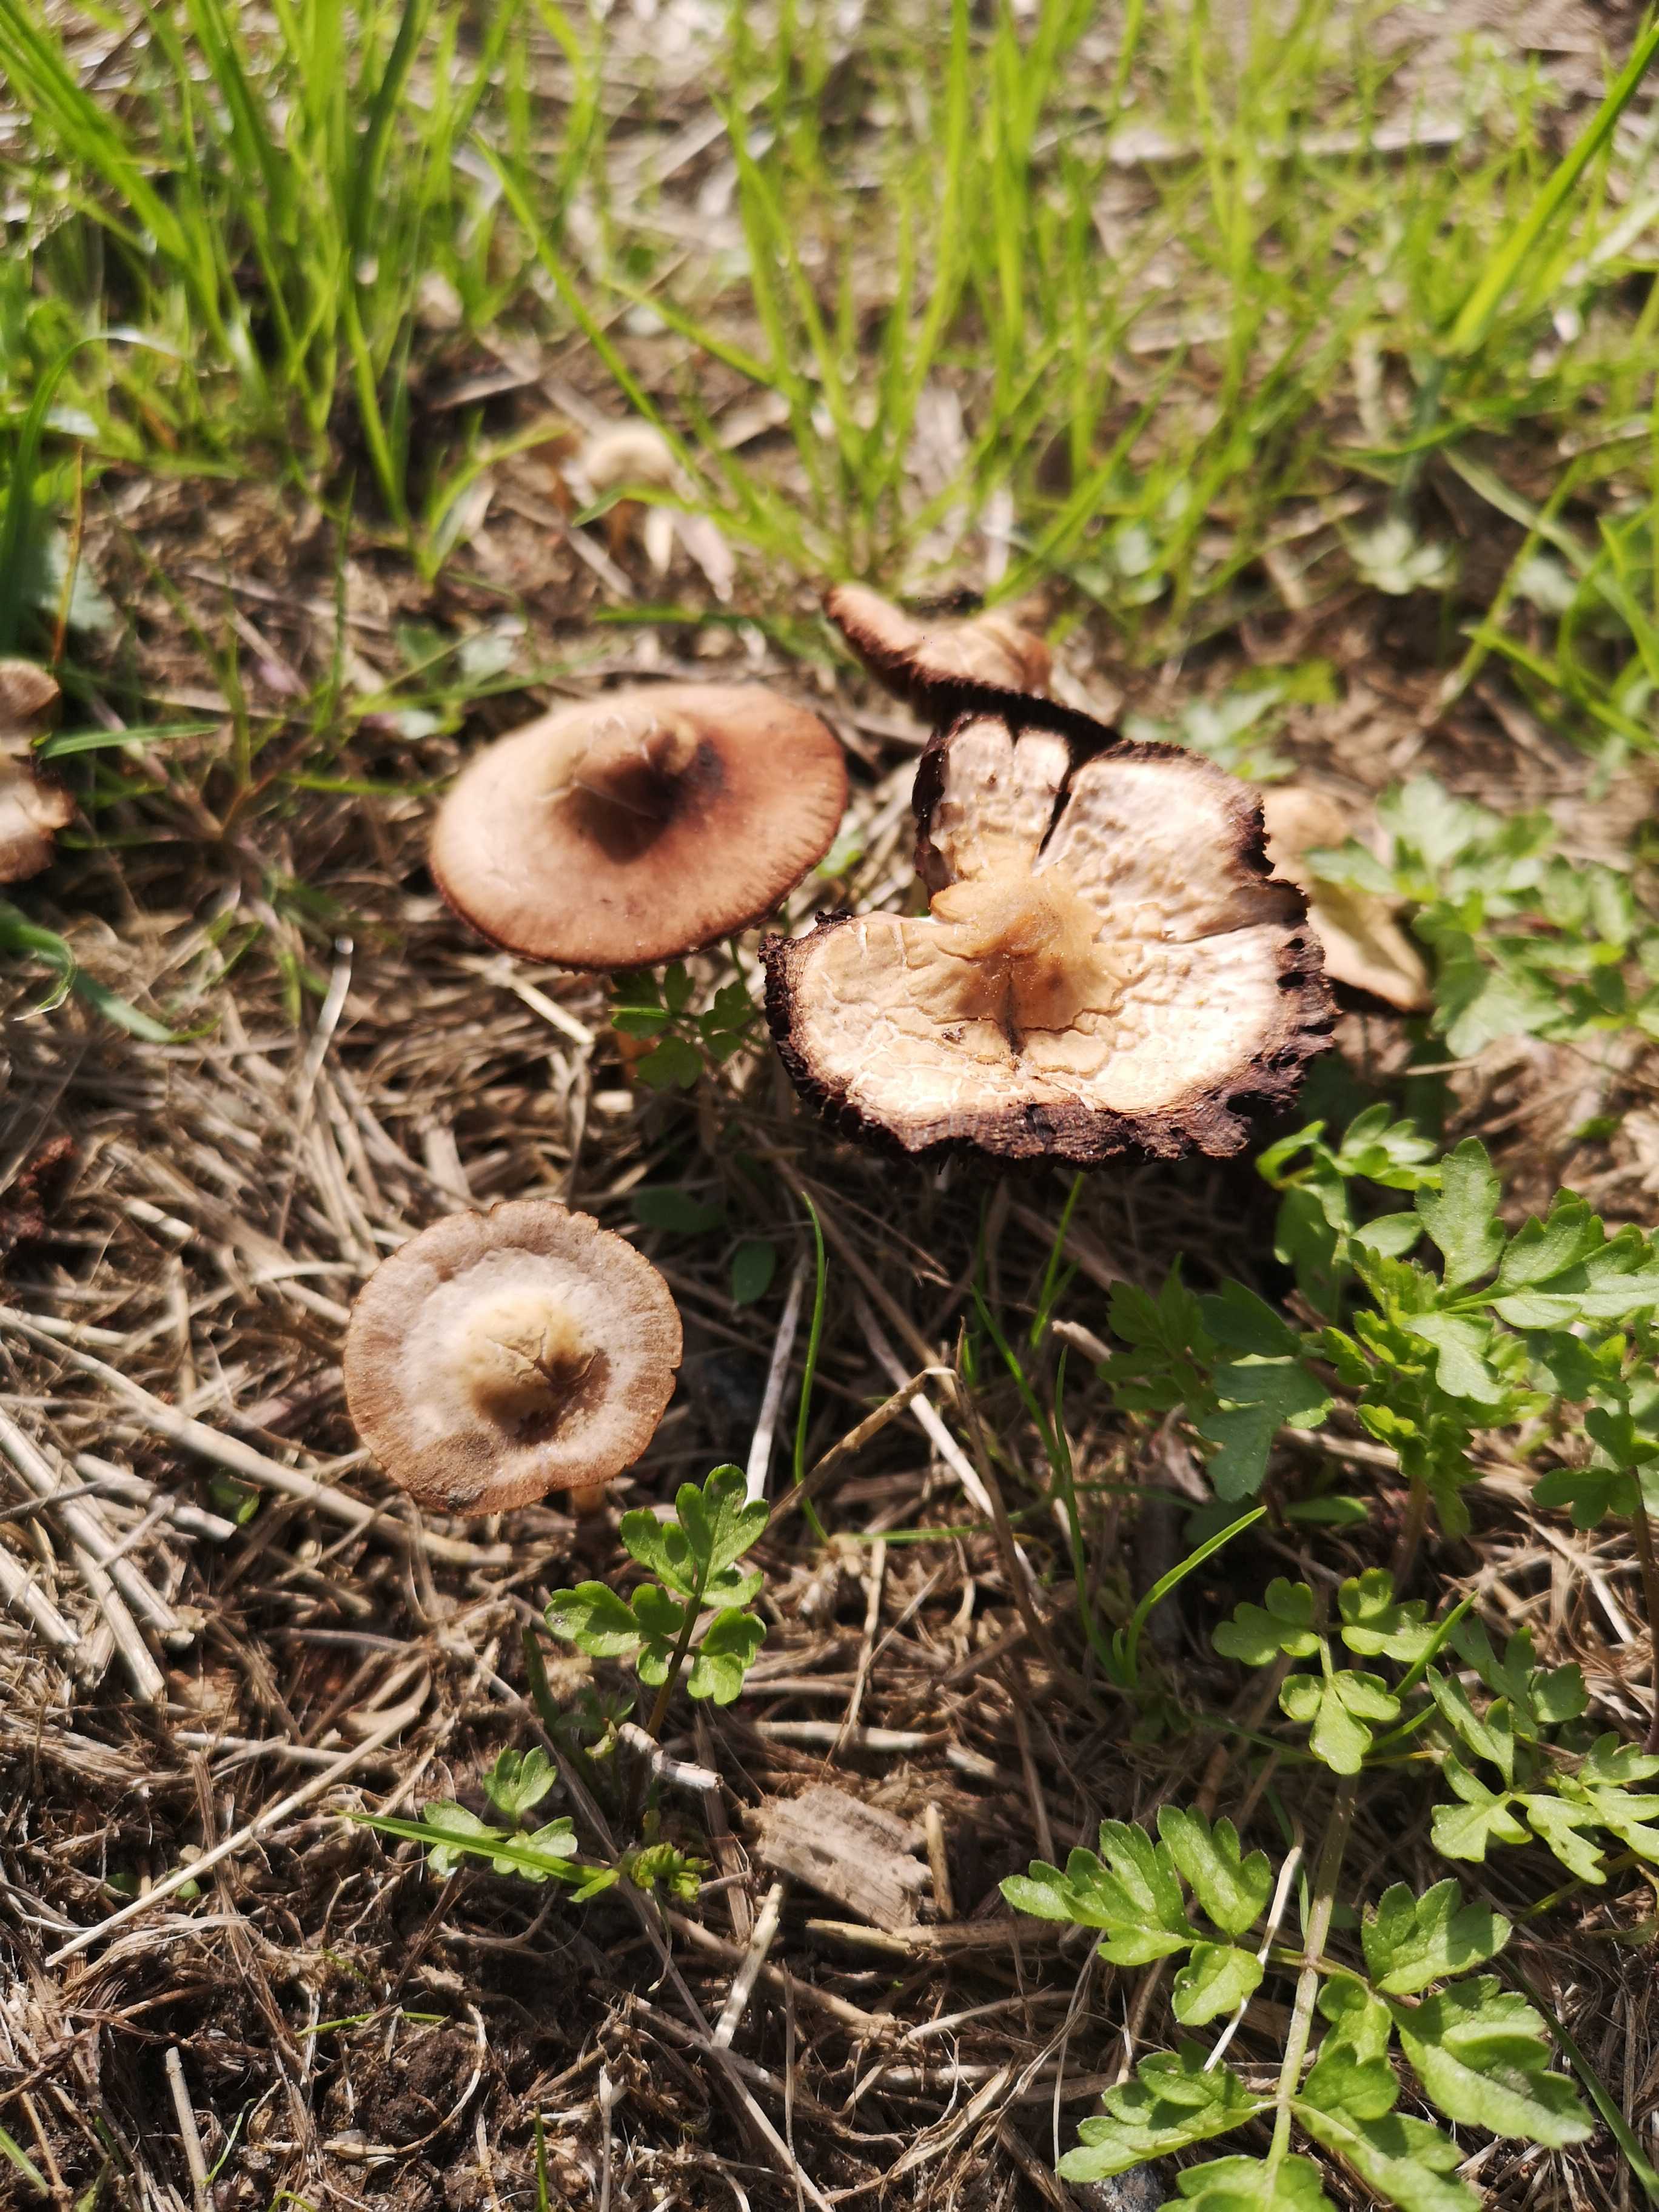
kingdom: Fungi
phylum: Basidiomycota
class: Agaricomycetes
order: Agaricales
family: Psathyrellaceae
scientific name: Psathyrellaceae
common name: mørkhatfamilien
